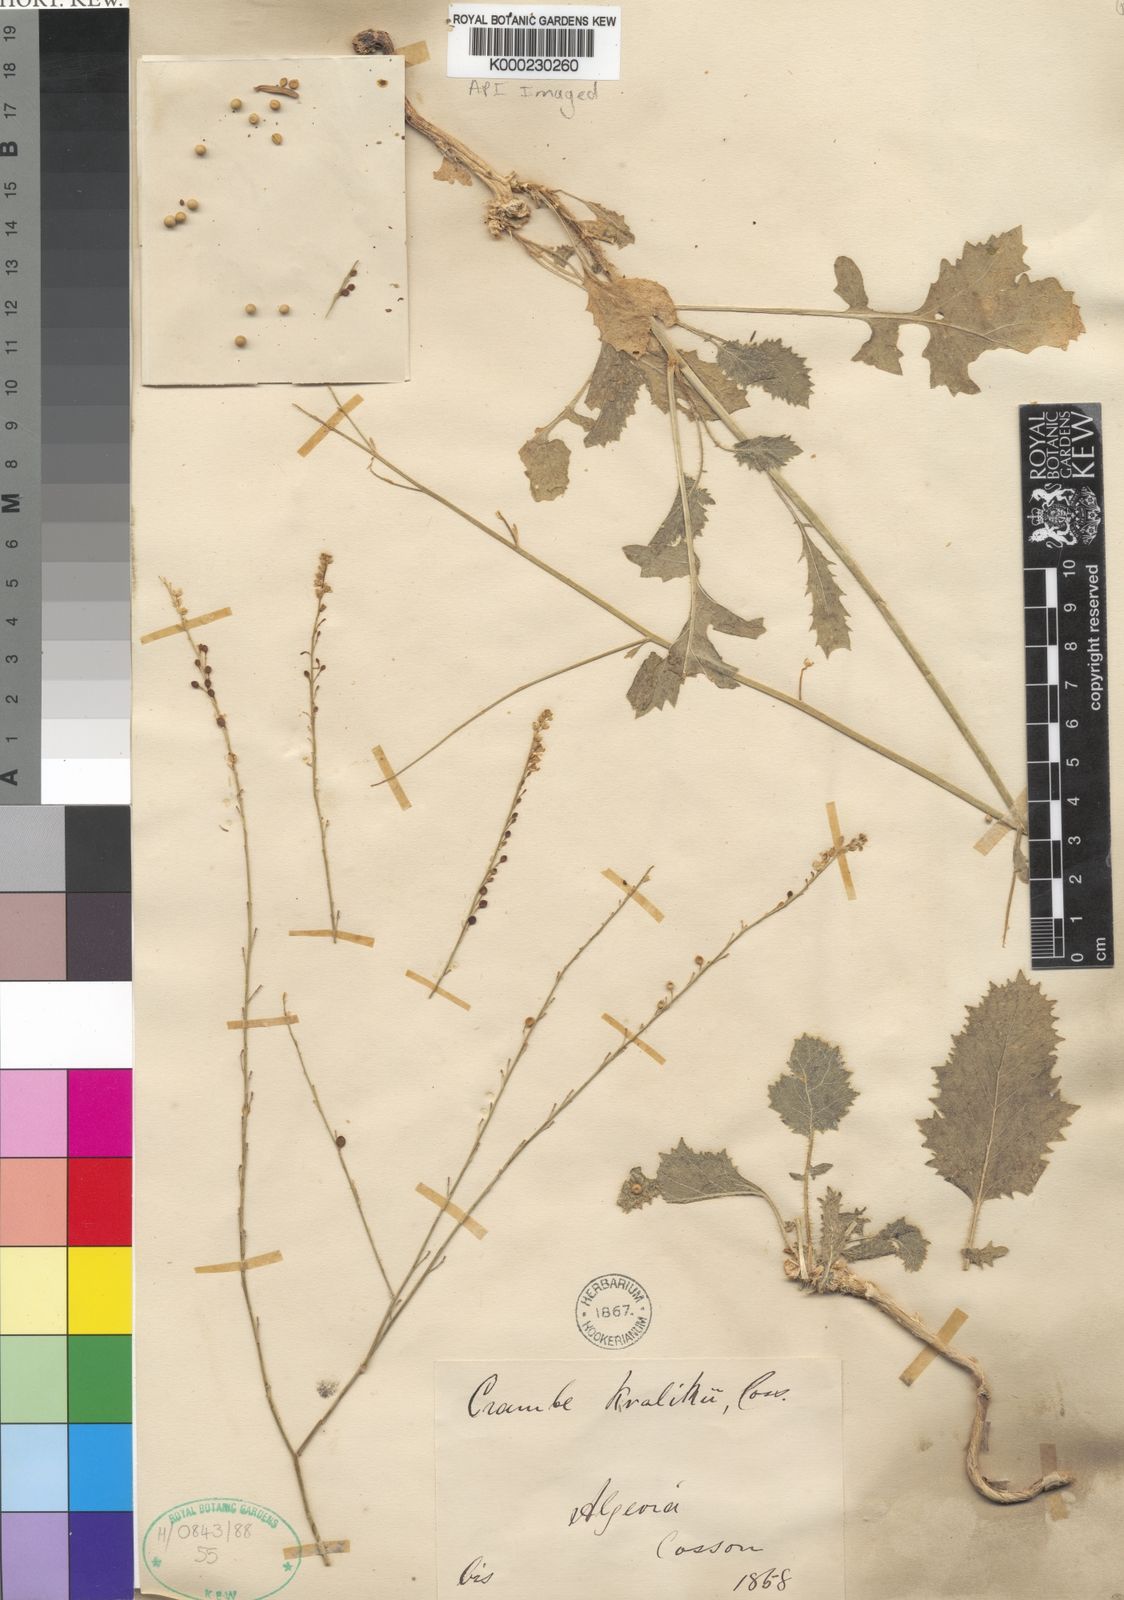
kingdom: Plantae
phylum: Tracheophyta
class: Magnoliopsida
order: Brassicales
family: Brassicaceae
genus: Crambe
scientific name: Crambe kralikii
